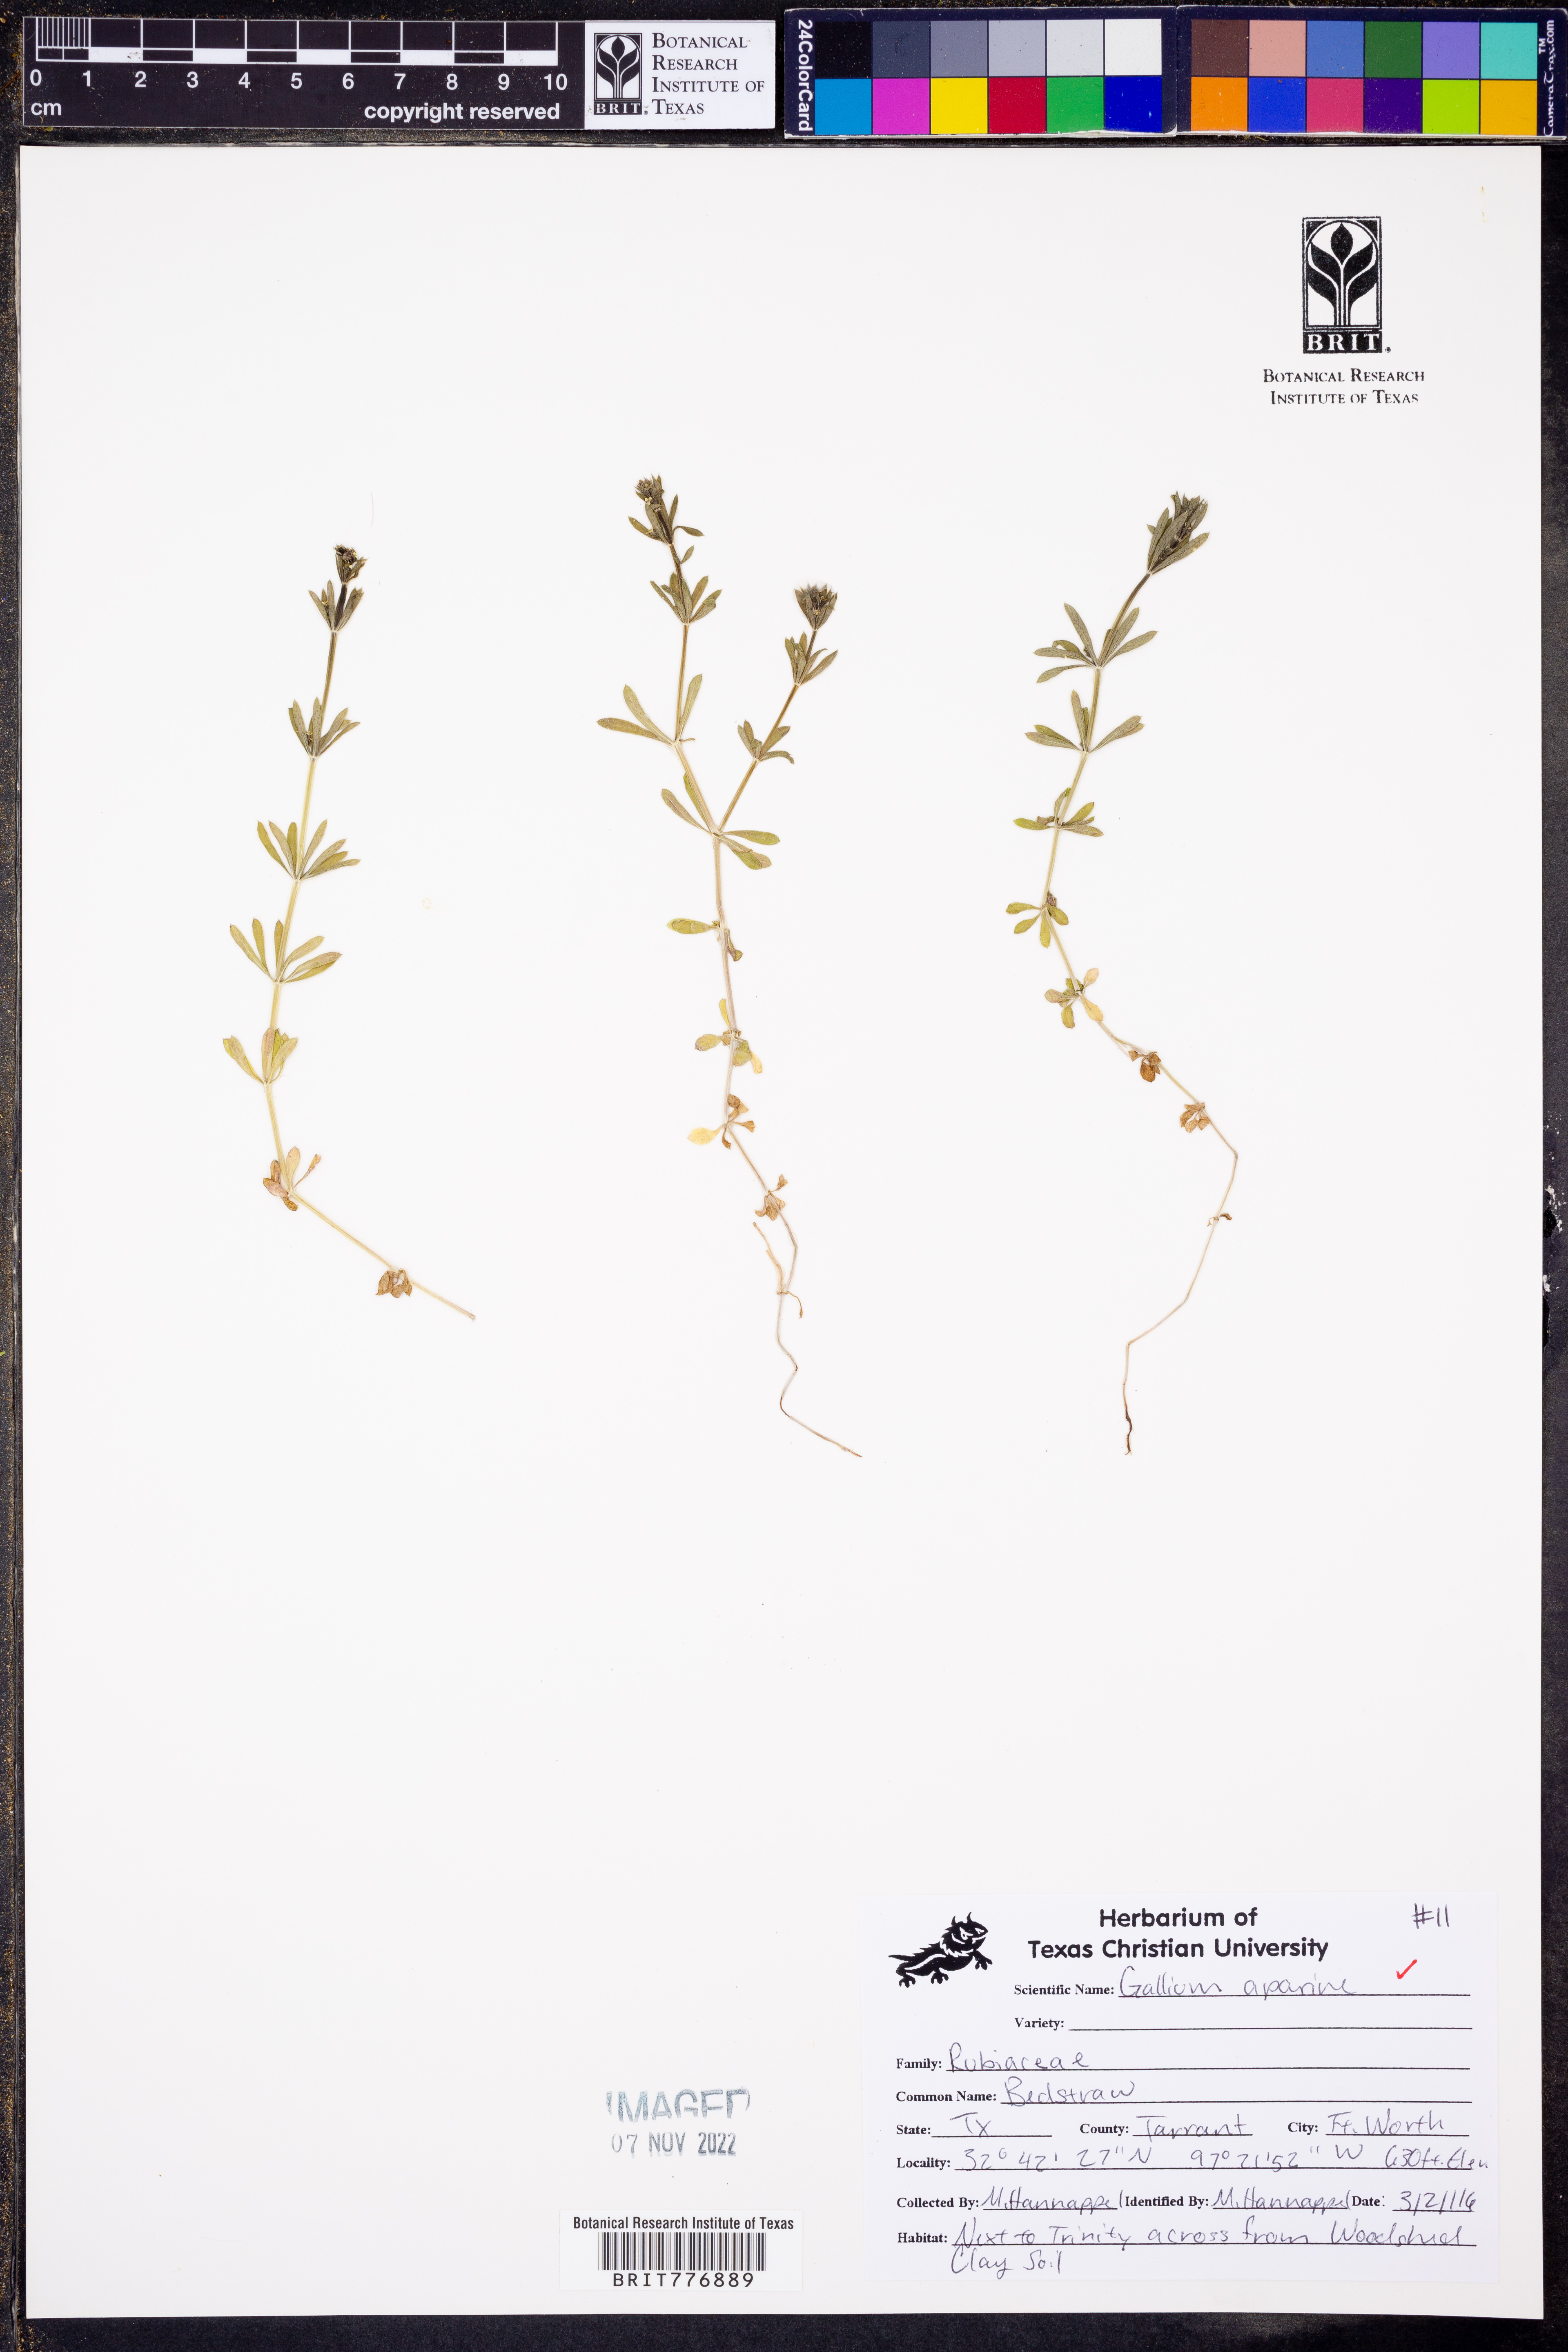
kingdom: Plantae
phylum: Tracheophyta
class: Magnoliopsida
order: Gentianales
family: Rubiaceae
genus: Galium
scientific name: Galium aparine
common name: Cleavers
